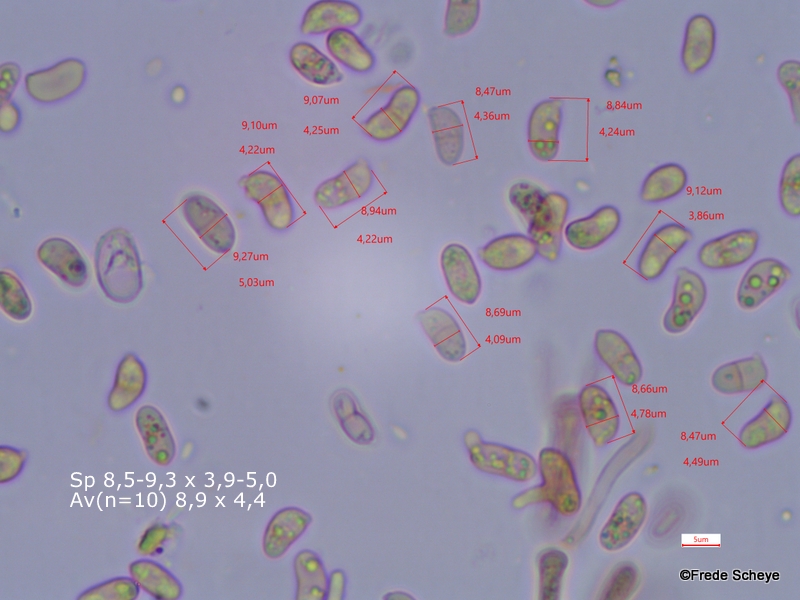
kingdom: Fungi
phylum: Basidiomycota
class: Dacrymycetes
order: Dacrymycetales
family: Dacrymycetaceae
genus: Calocera
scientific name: Calocera cornea
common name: liden guldgaffel
